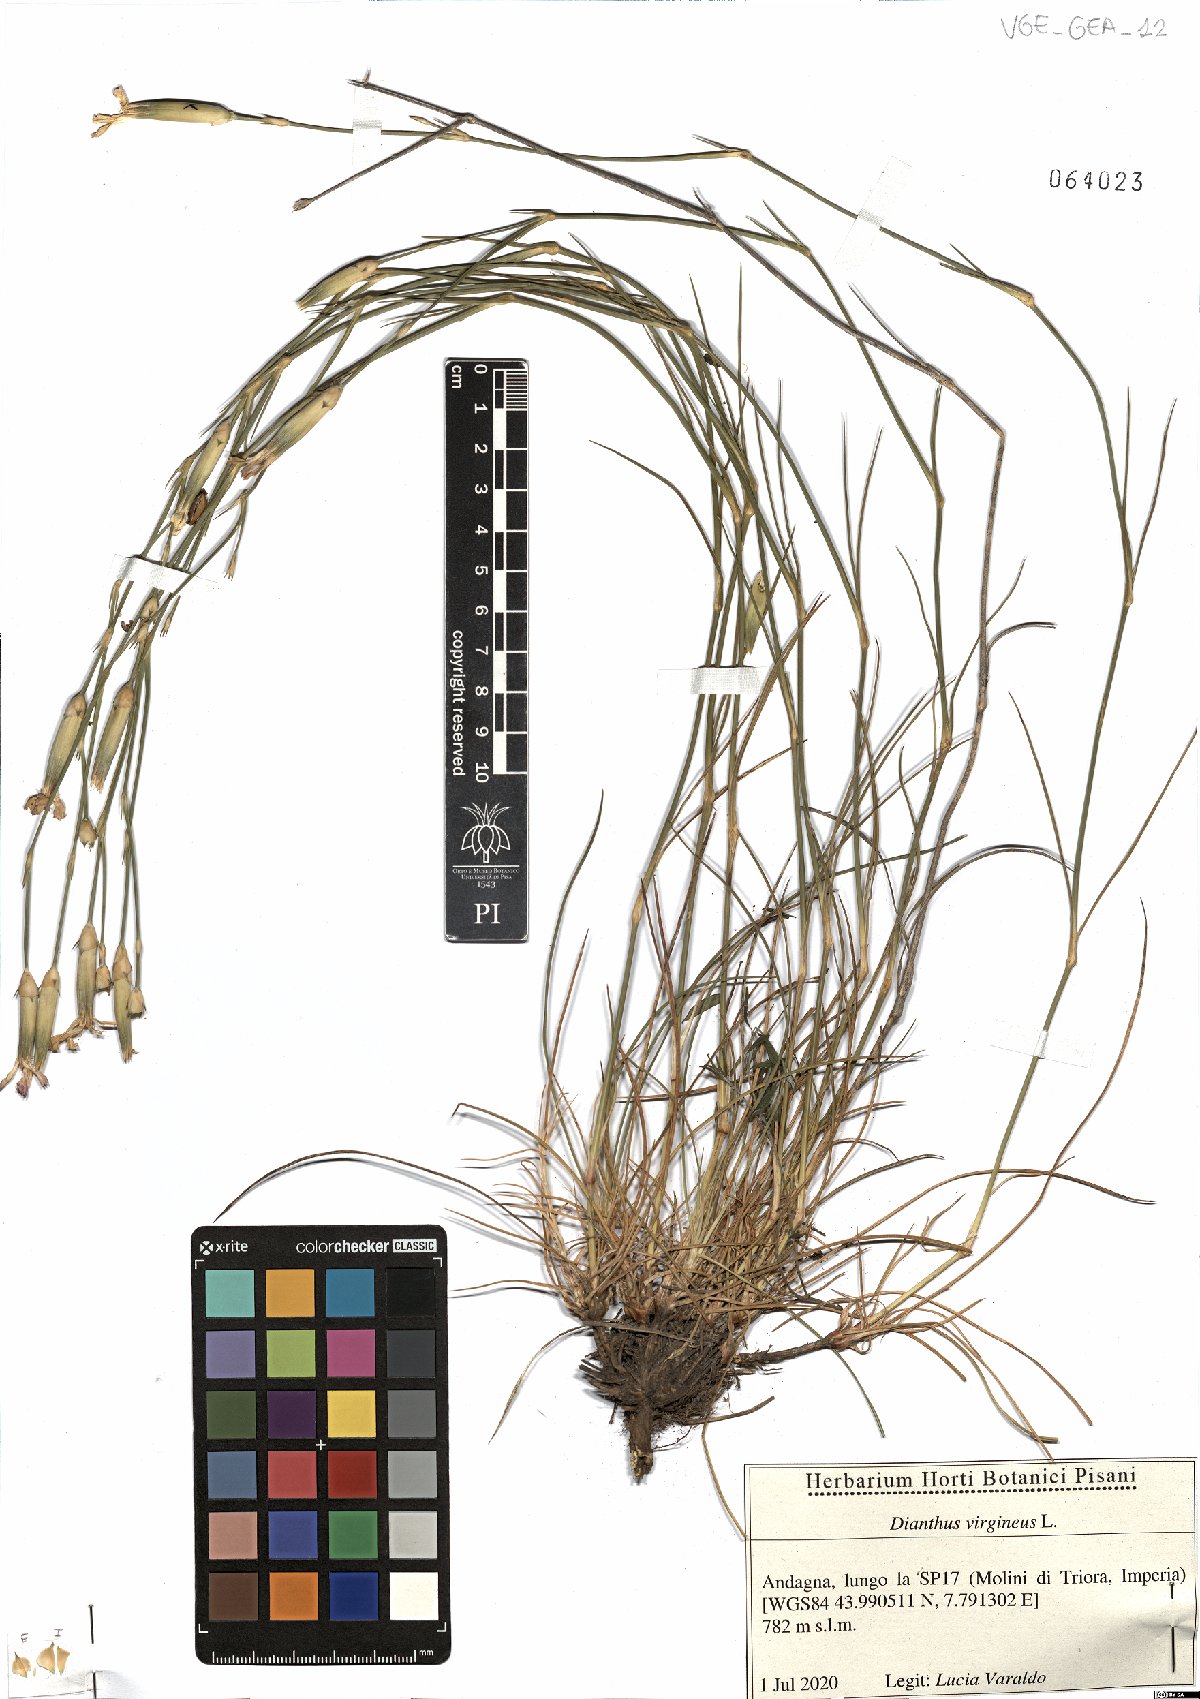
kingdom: Plantae
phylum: Tracheophyta
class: Magnoliopsida
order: Caryophyllales
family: Caryophyllaceae
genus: Dianthus
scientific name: Dianthus virgineus
